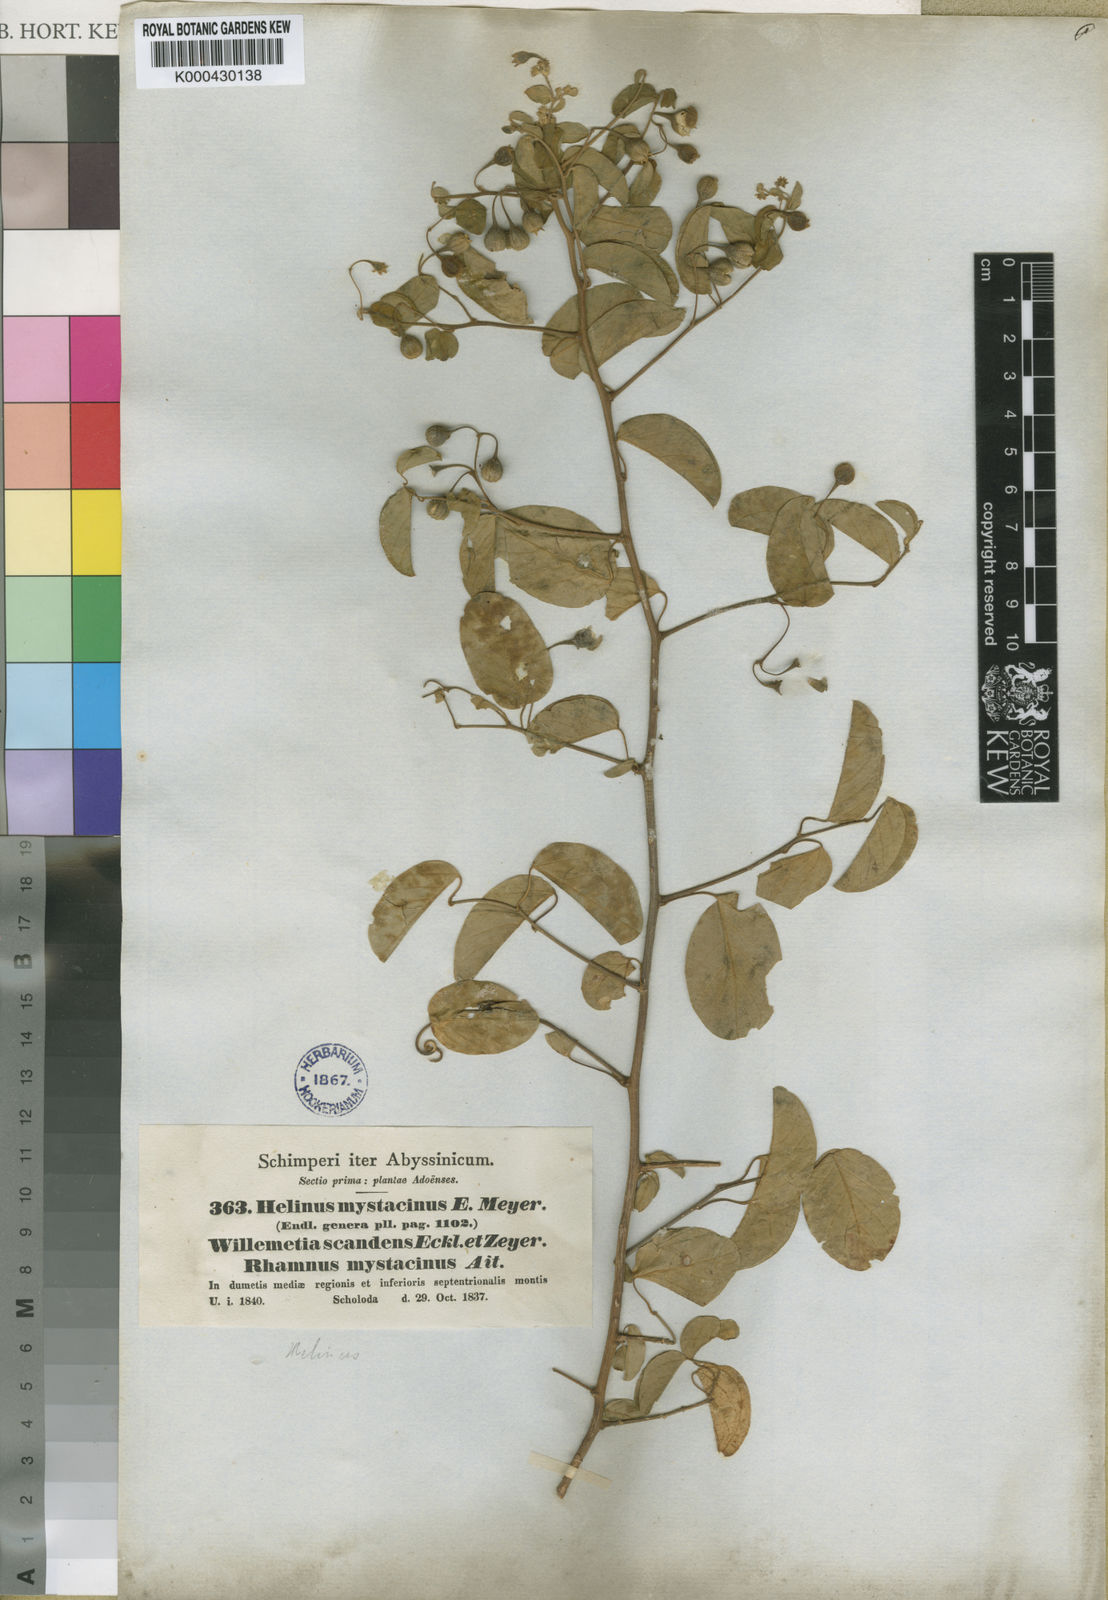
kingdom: Plantae
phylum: Tracheophyta
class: Magnoliopsida
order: Rosales
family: Rhamnaceae
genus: Helinus
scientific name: Helinus mystacinus
